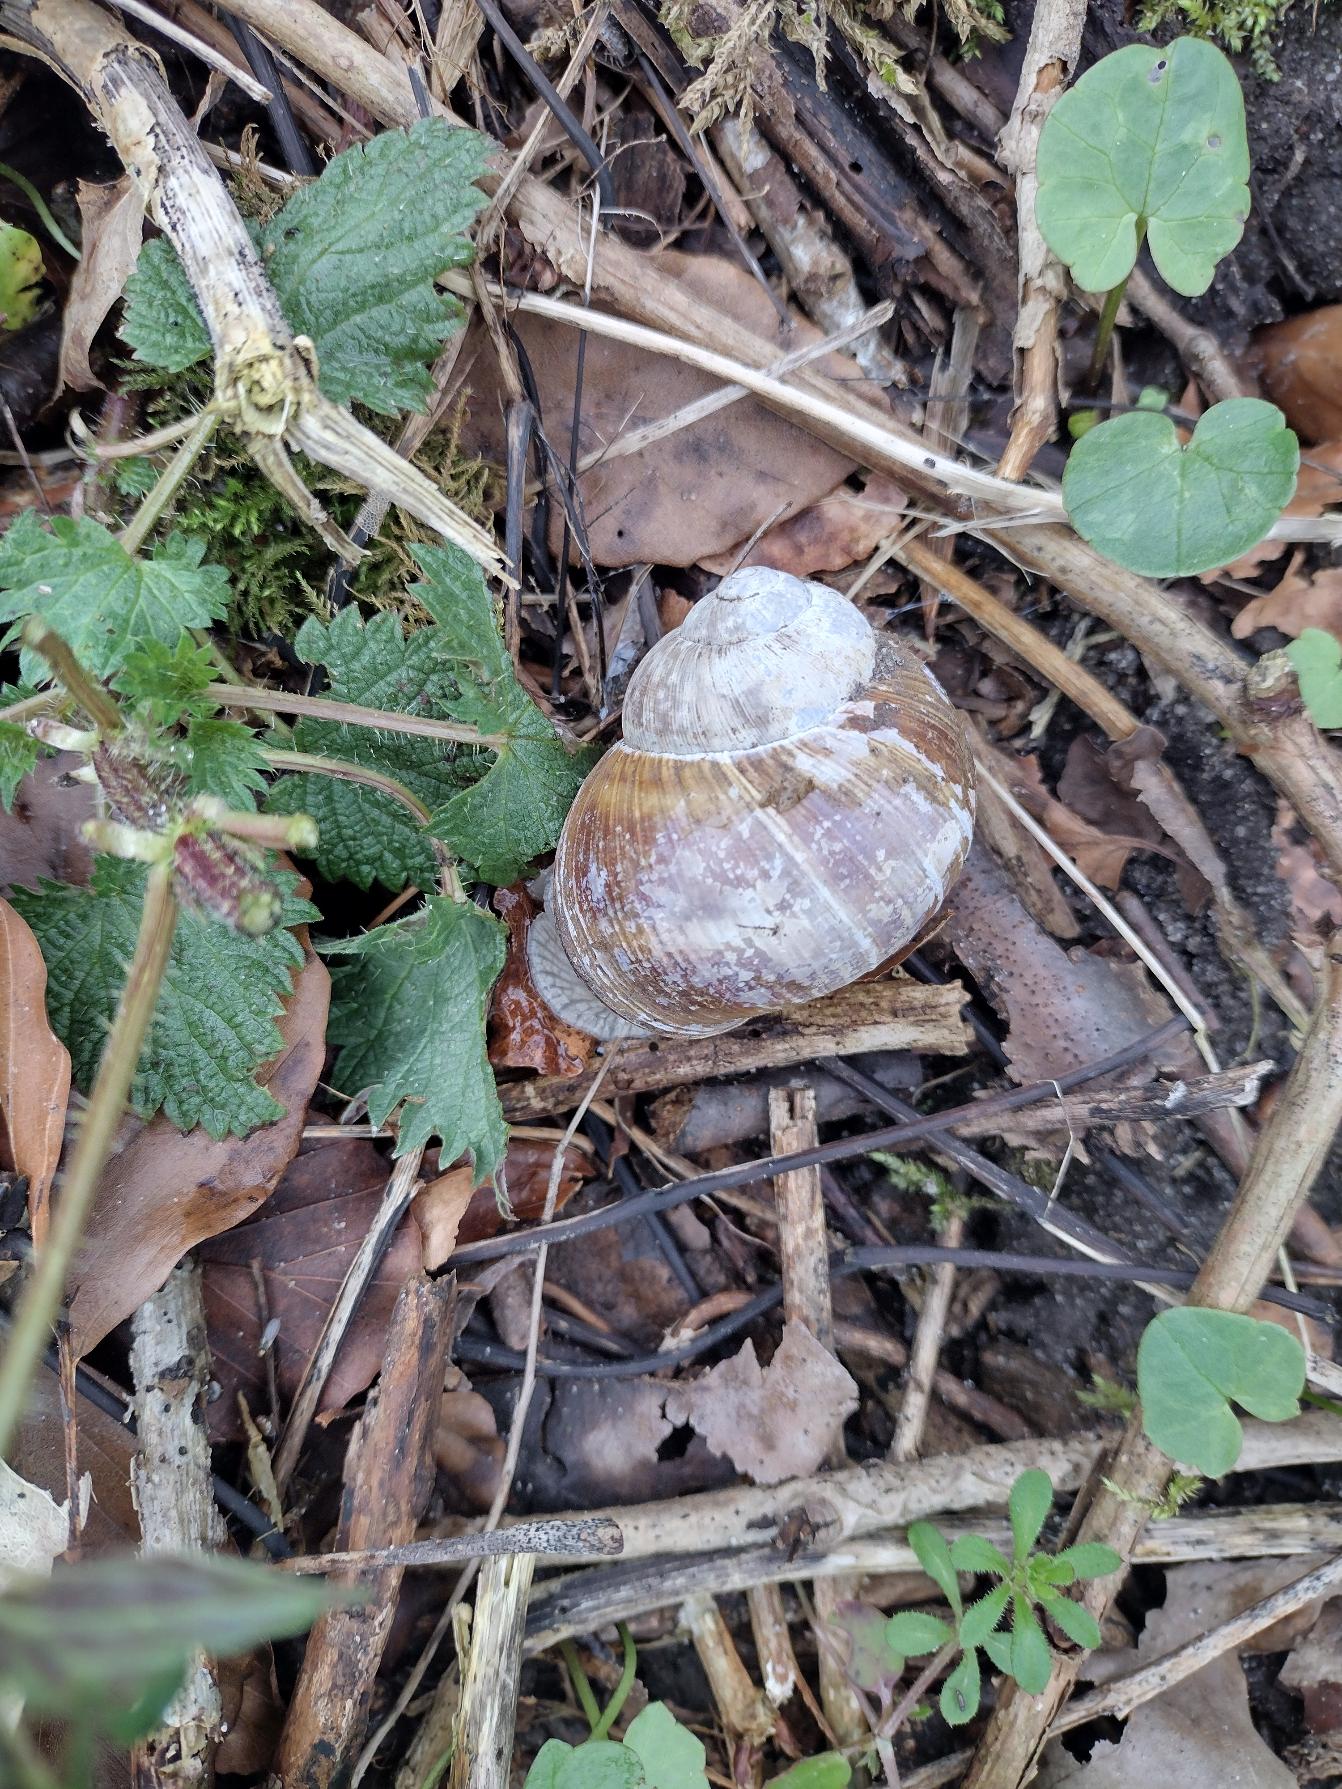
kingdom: Animalia
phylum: Mollusca
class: Gastropoda
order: Stylommatophora
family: Helicidae
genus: Helix
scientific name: Helix pomatia
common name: Vinbjergsnegl
